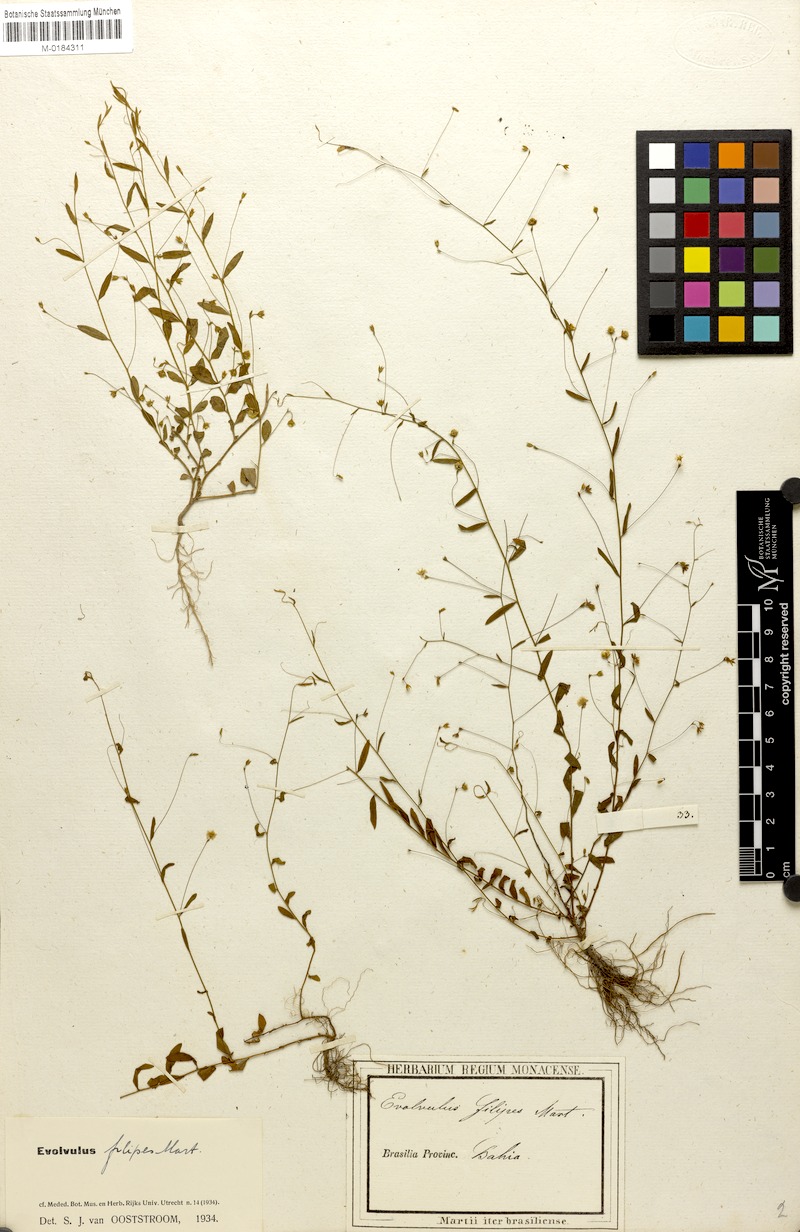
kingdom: Plantae
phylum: Tracheophyta
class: Magnoliopsida
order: Solanales
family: Convolvulaceae
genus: Evolvulus
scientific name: Evolvulus filipes
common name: Maryland dwarf morning-glory
